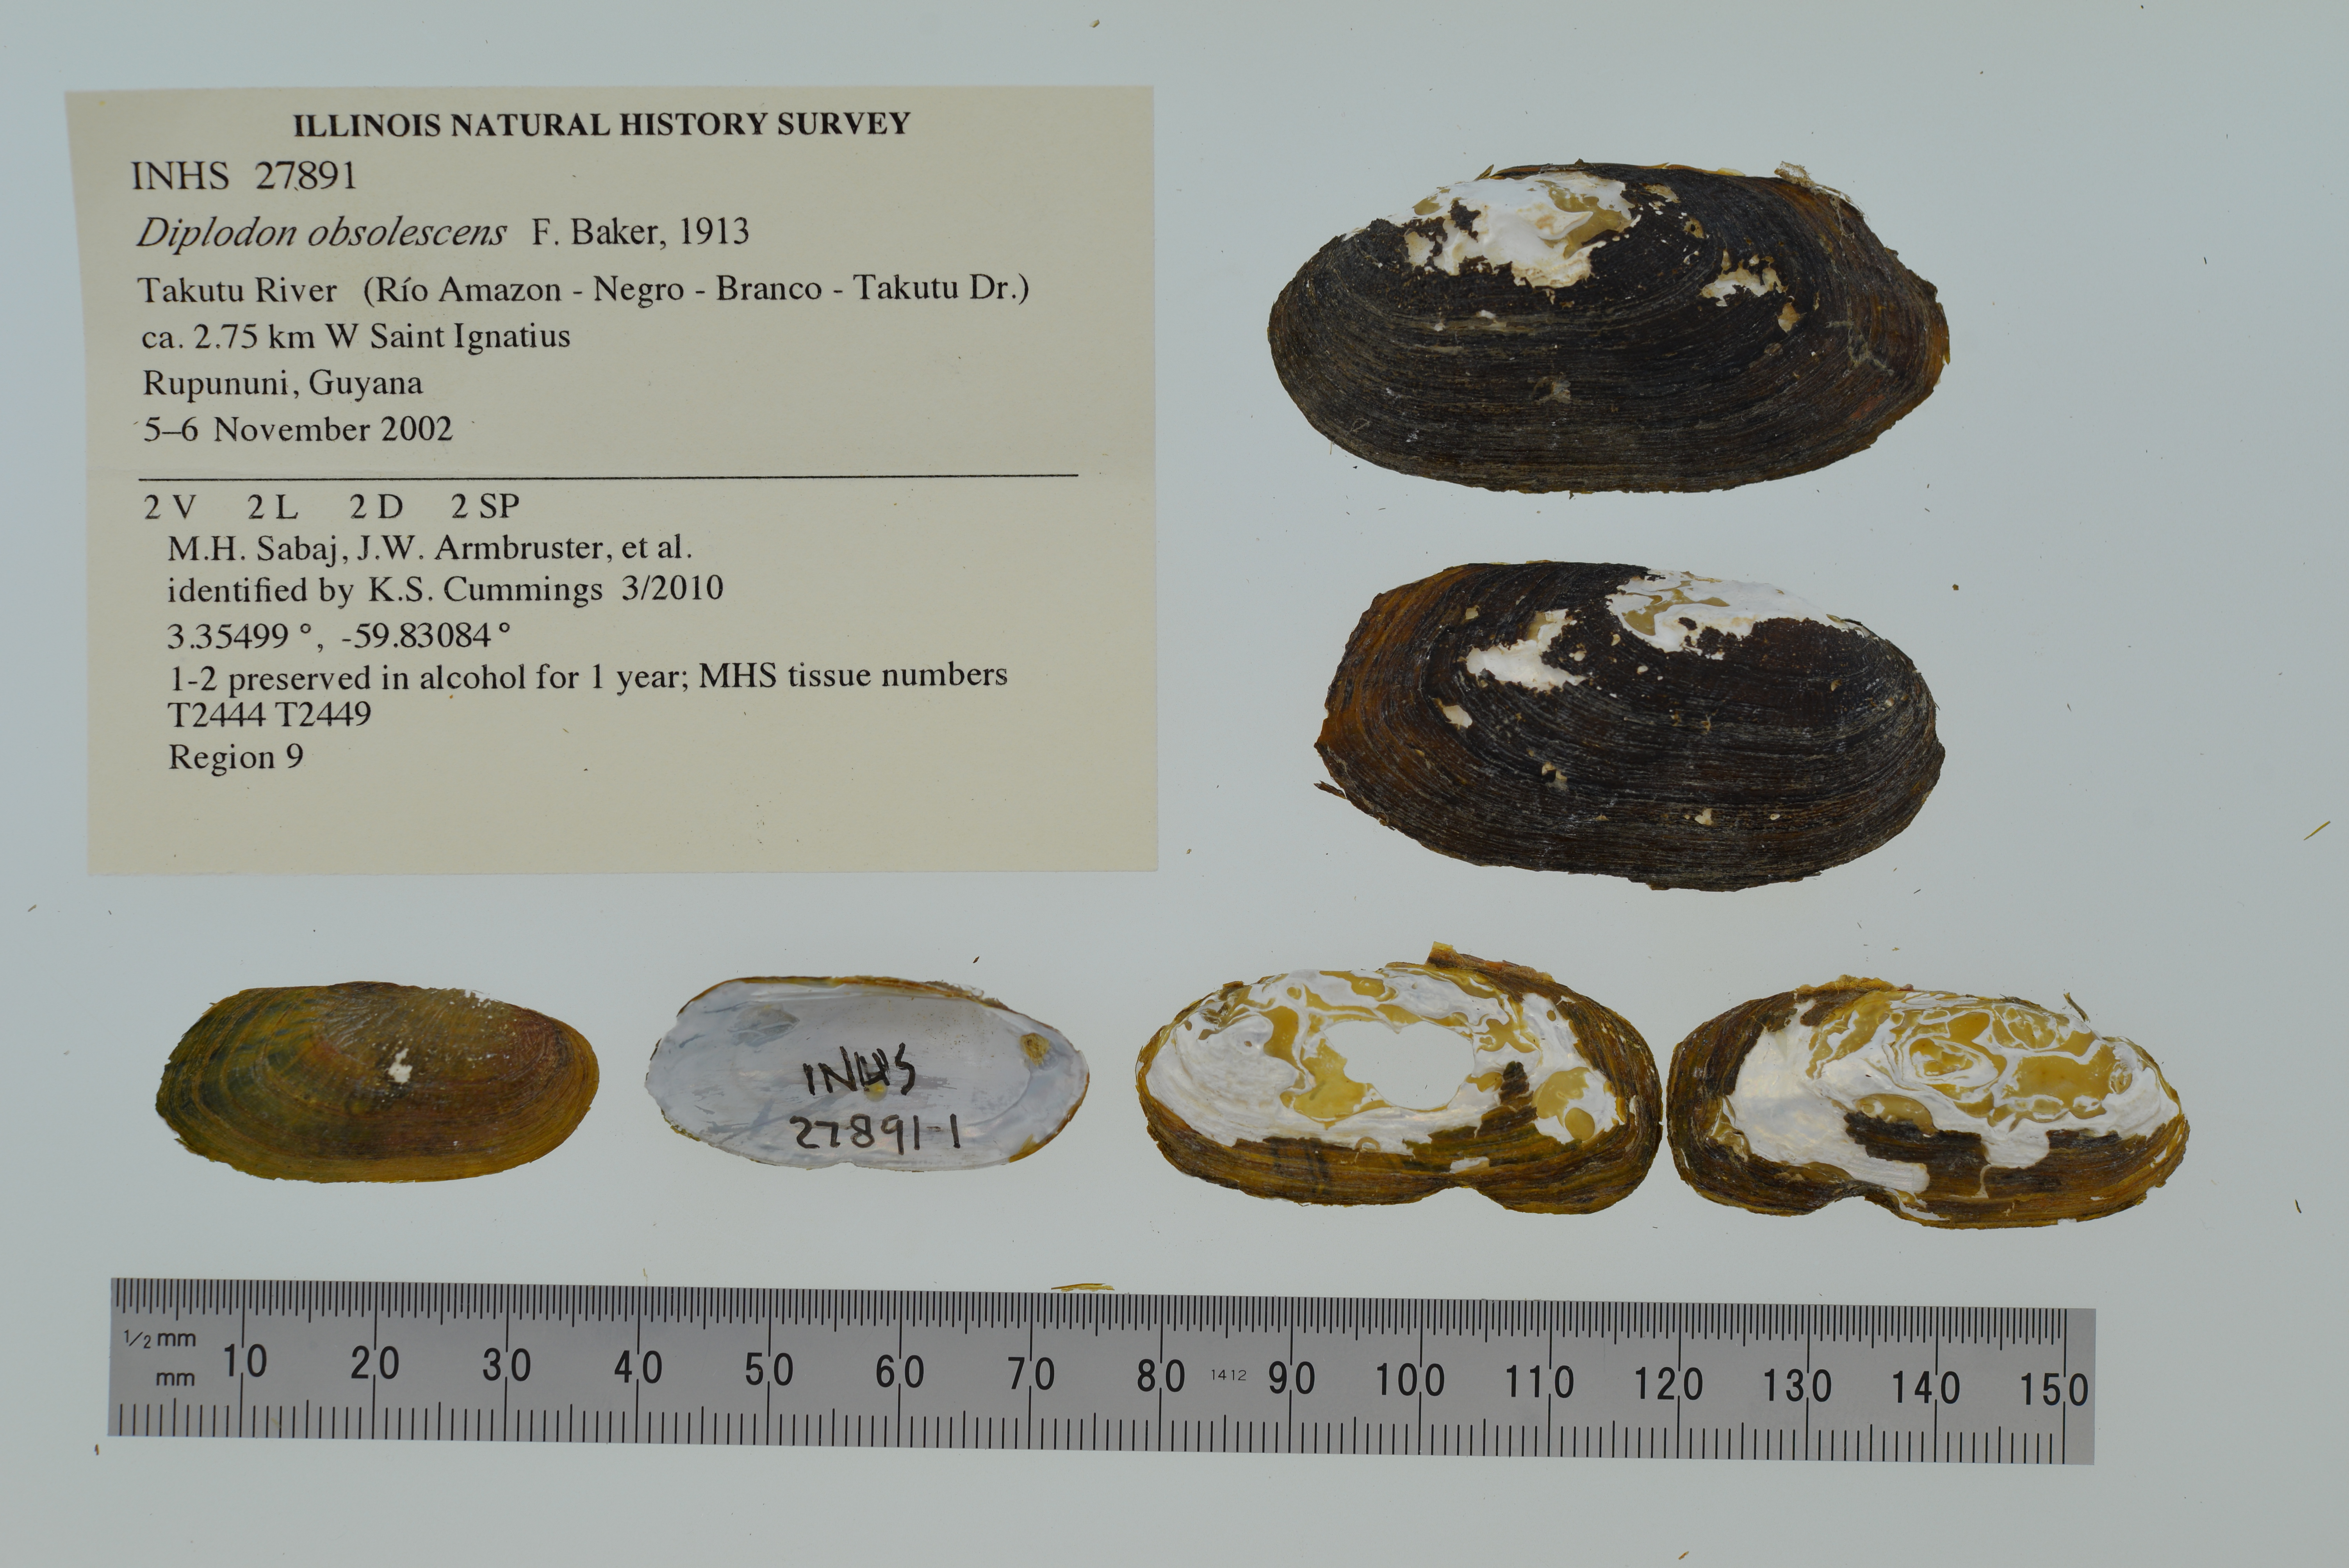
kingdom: Animalia
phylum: Mollusca
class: Bivalvia
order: Unionida
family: Hyriidae
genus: Diplodon
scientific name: Diplodon obsolescens
